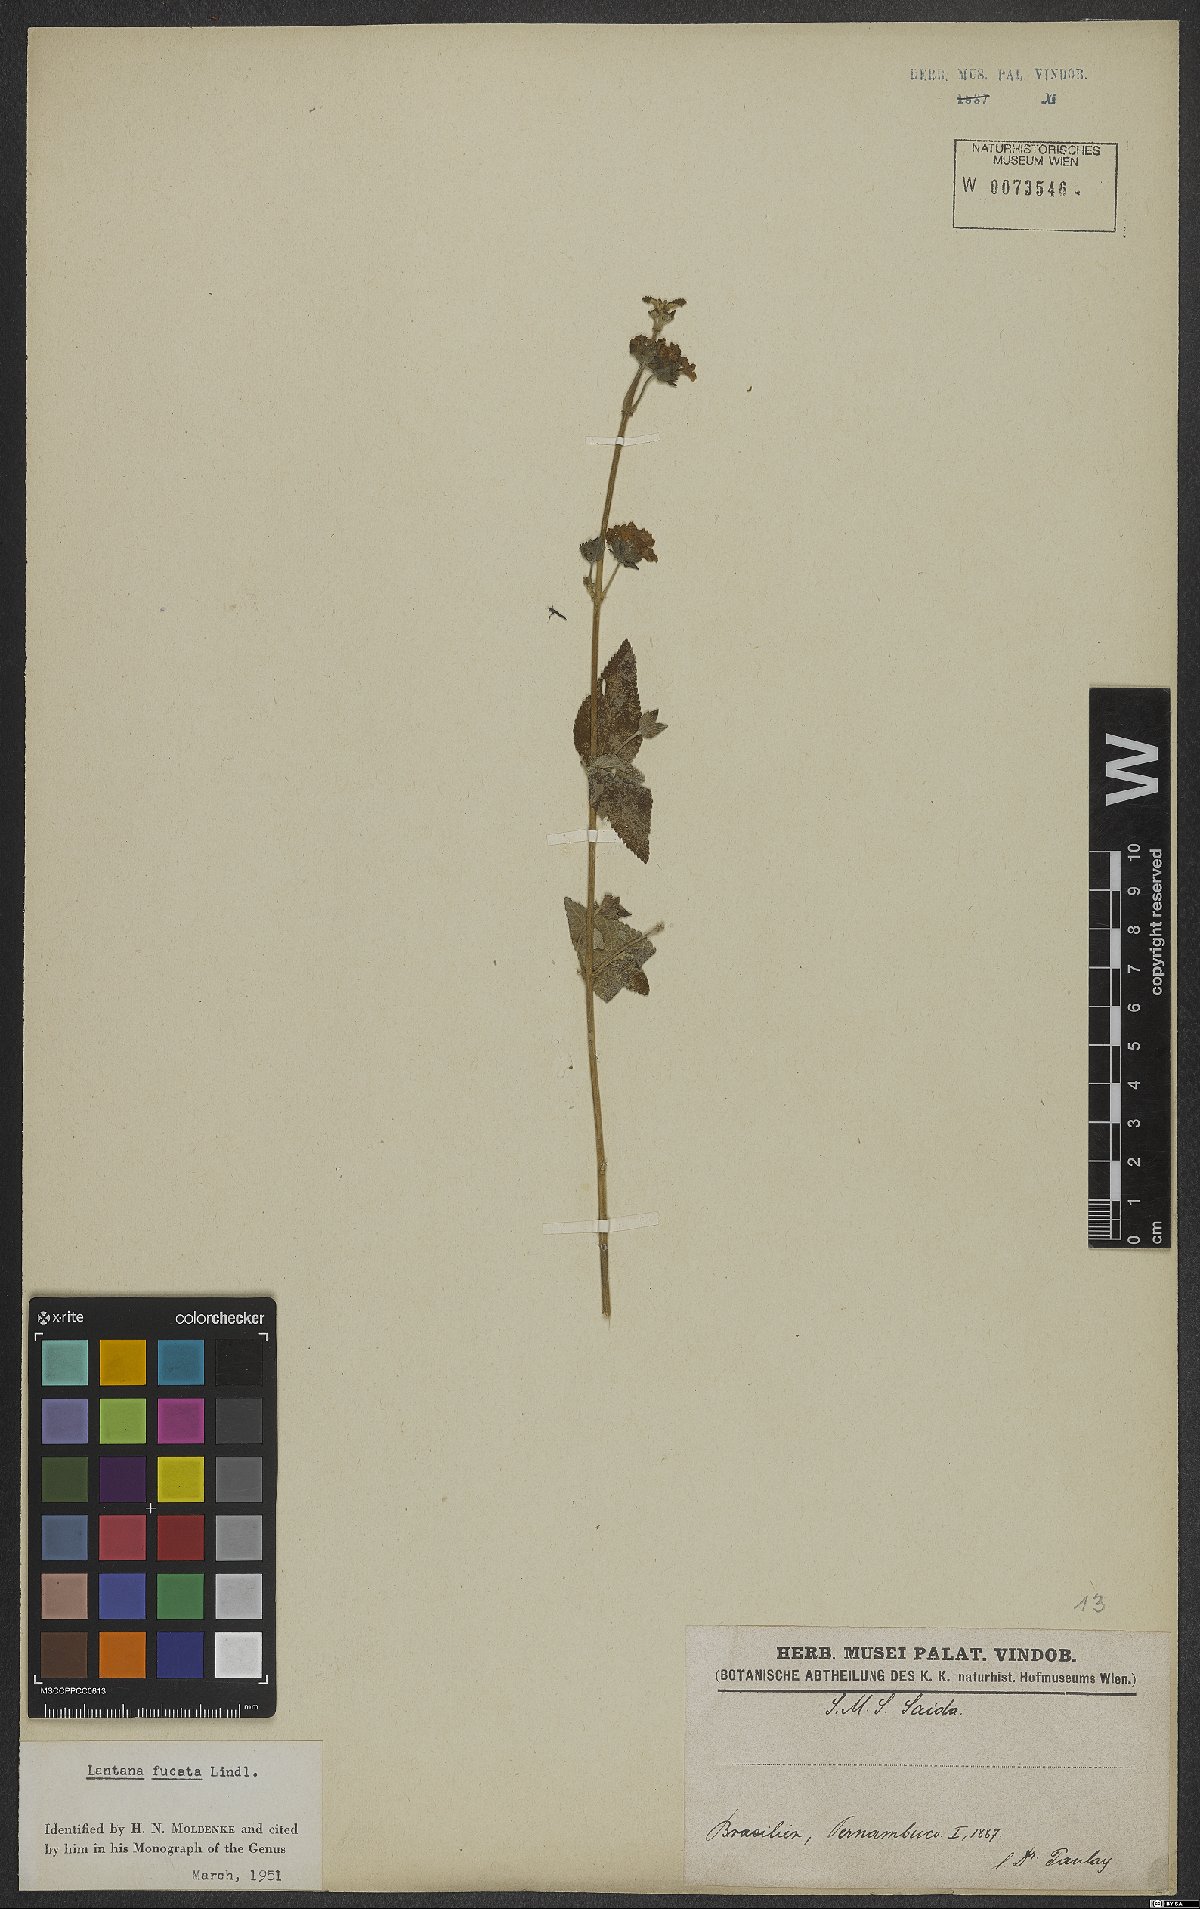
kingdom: Plantae
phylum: Tracheophyta
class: Magnoliopsida
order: Lamiales
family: Verbenaceae
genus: Lantana
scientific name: Lantana fucata
